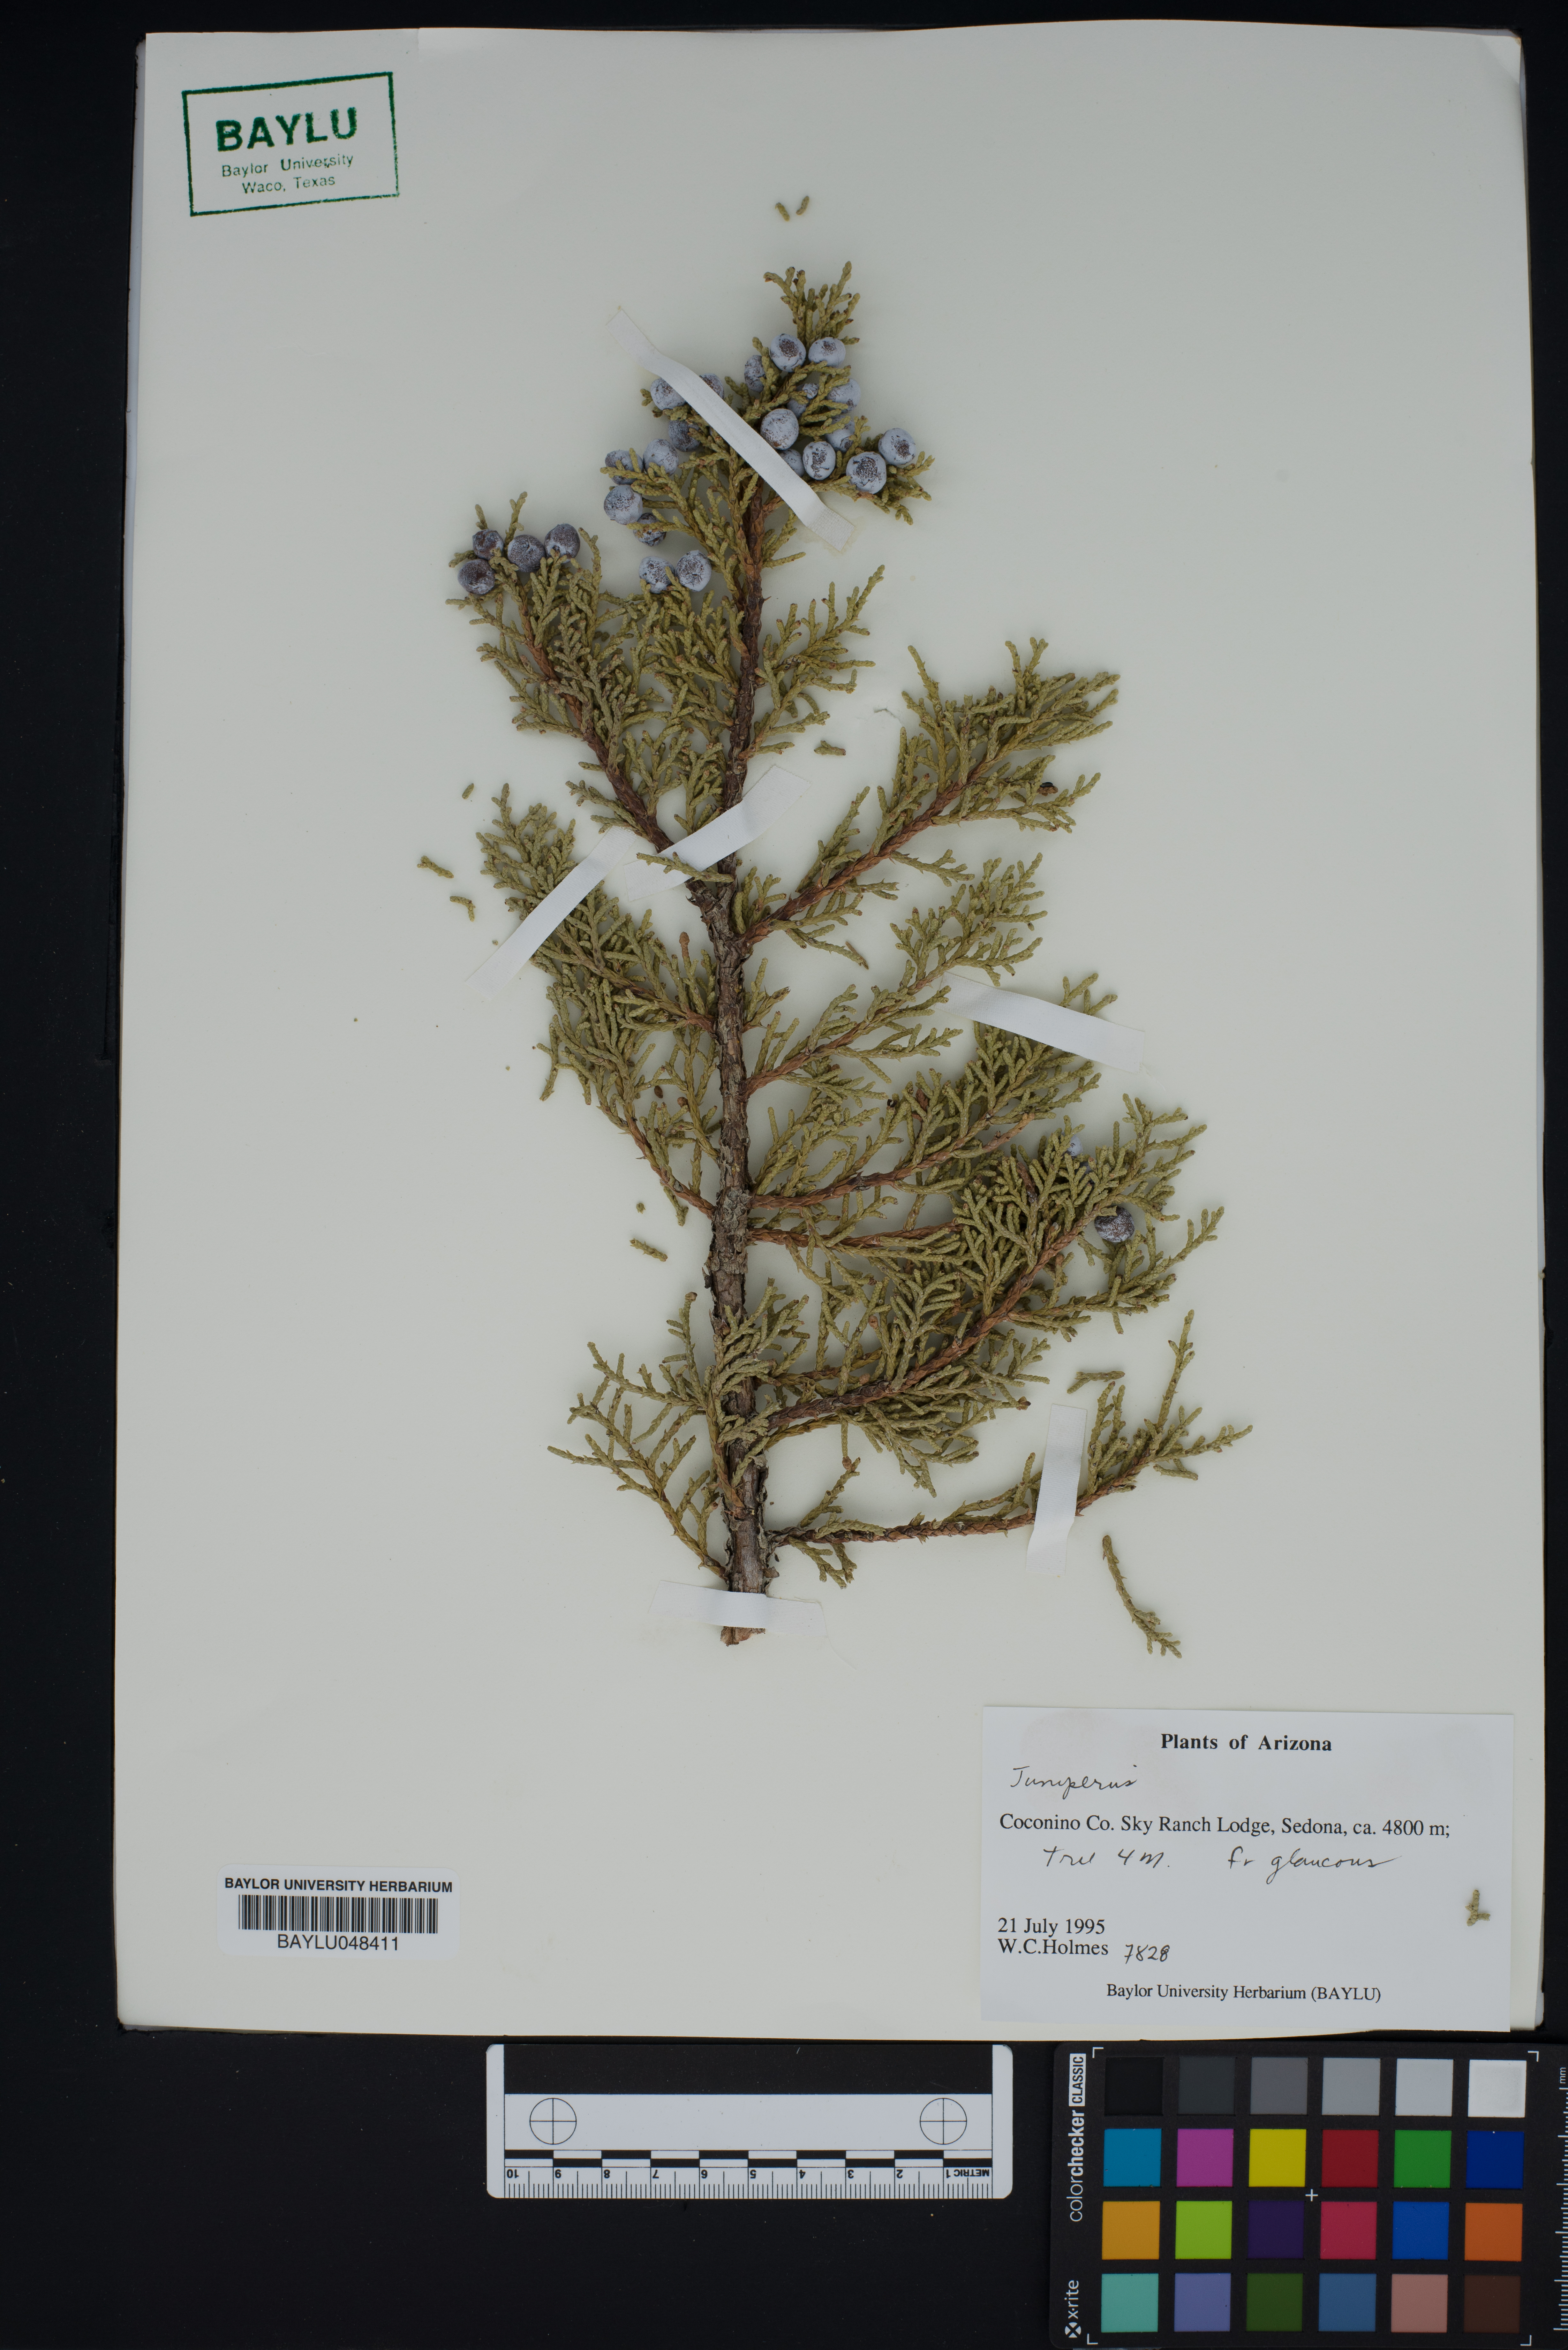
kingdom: Plantae
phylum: Tracheophyta
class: Pinopsida
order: Pinales
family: Cupressaceae
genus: Juniperus
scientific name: Juniperus
